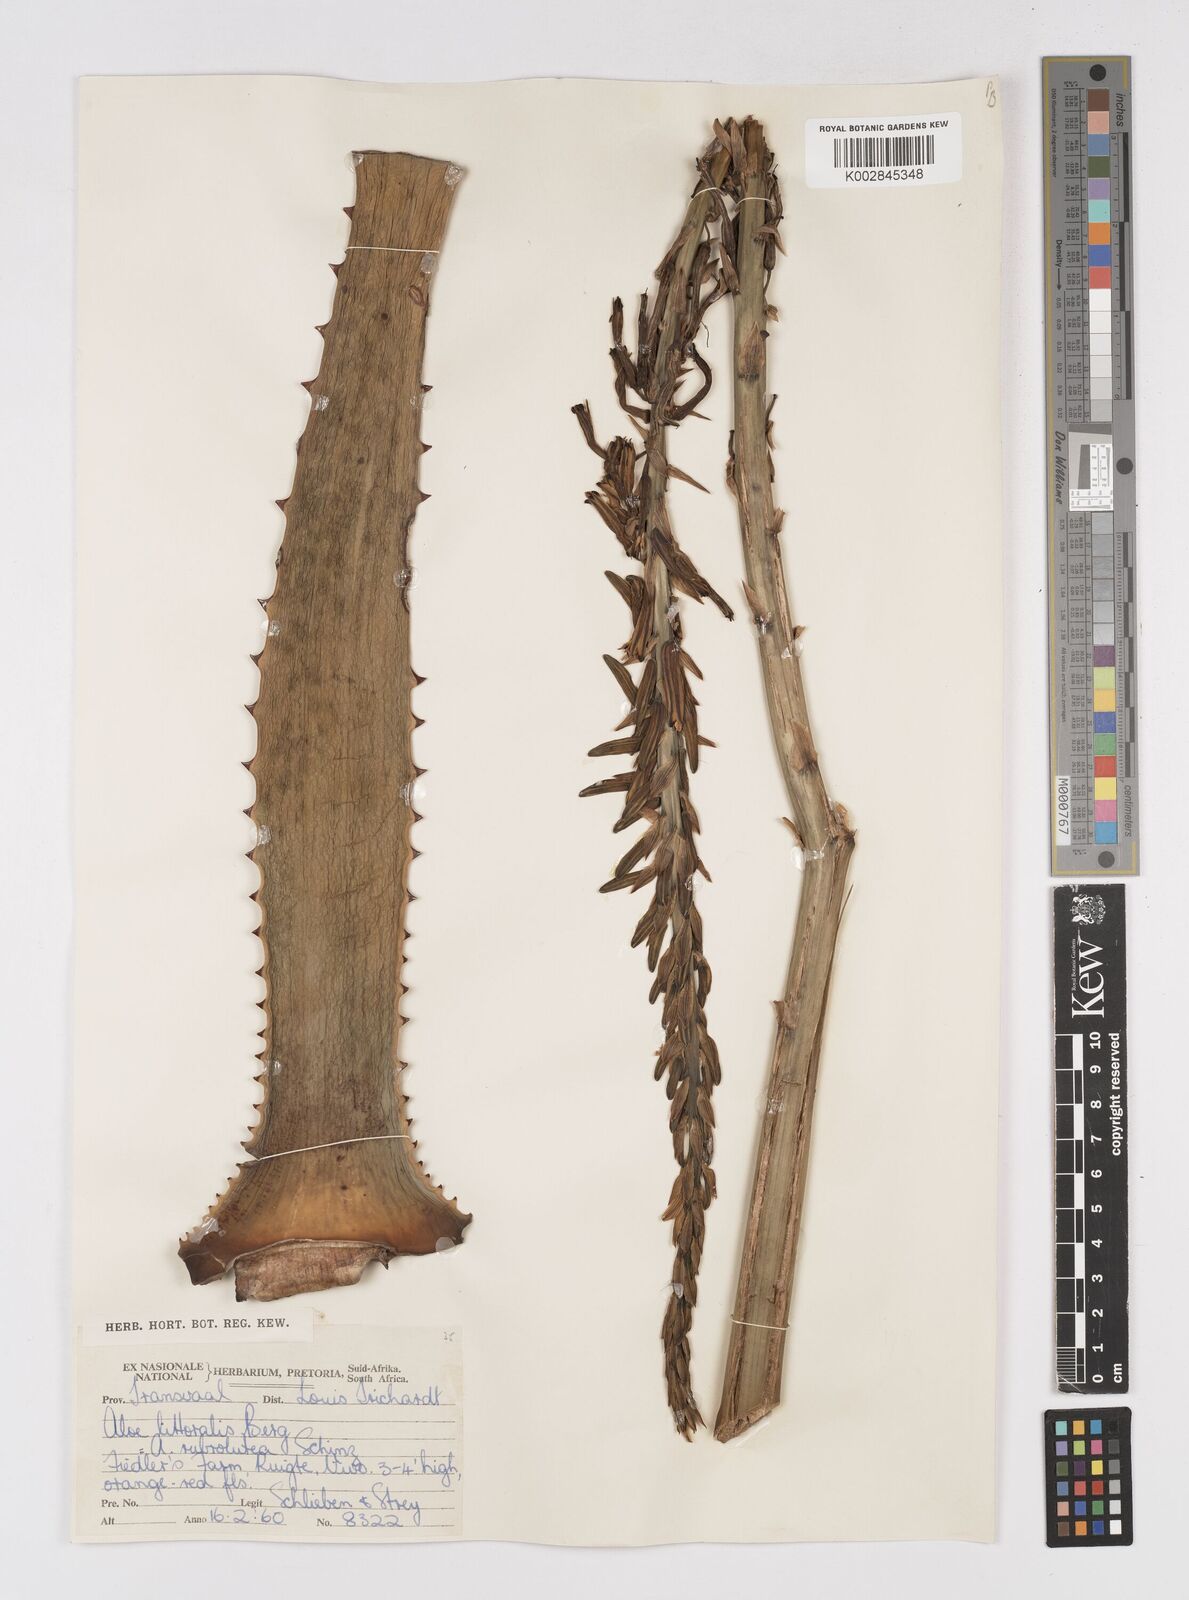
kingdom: Plantae
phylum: Tracheophyta
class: Liliopsida
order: Asparagales
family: Asphodelaceae
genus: Aloe
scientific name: Aloe littoralis
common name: Luanda tree aloe
